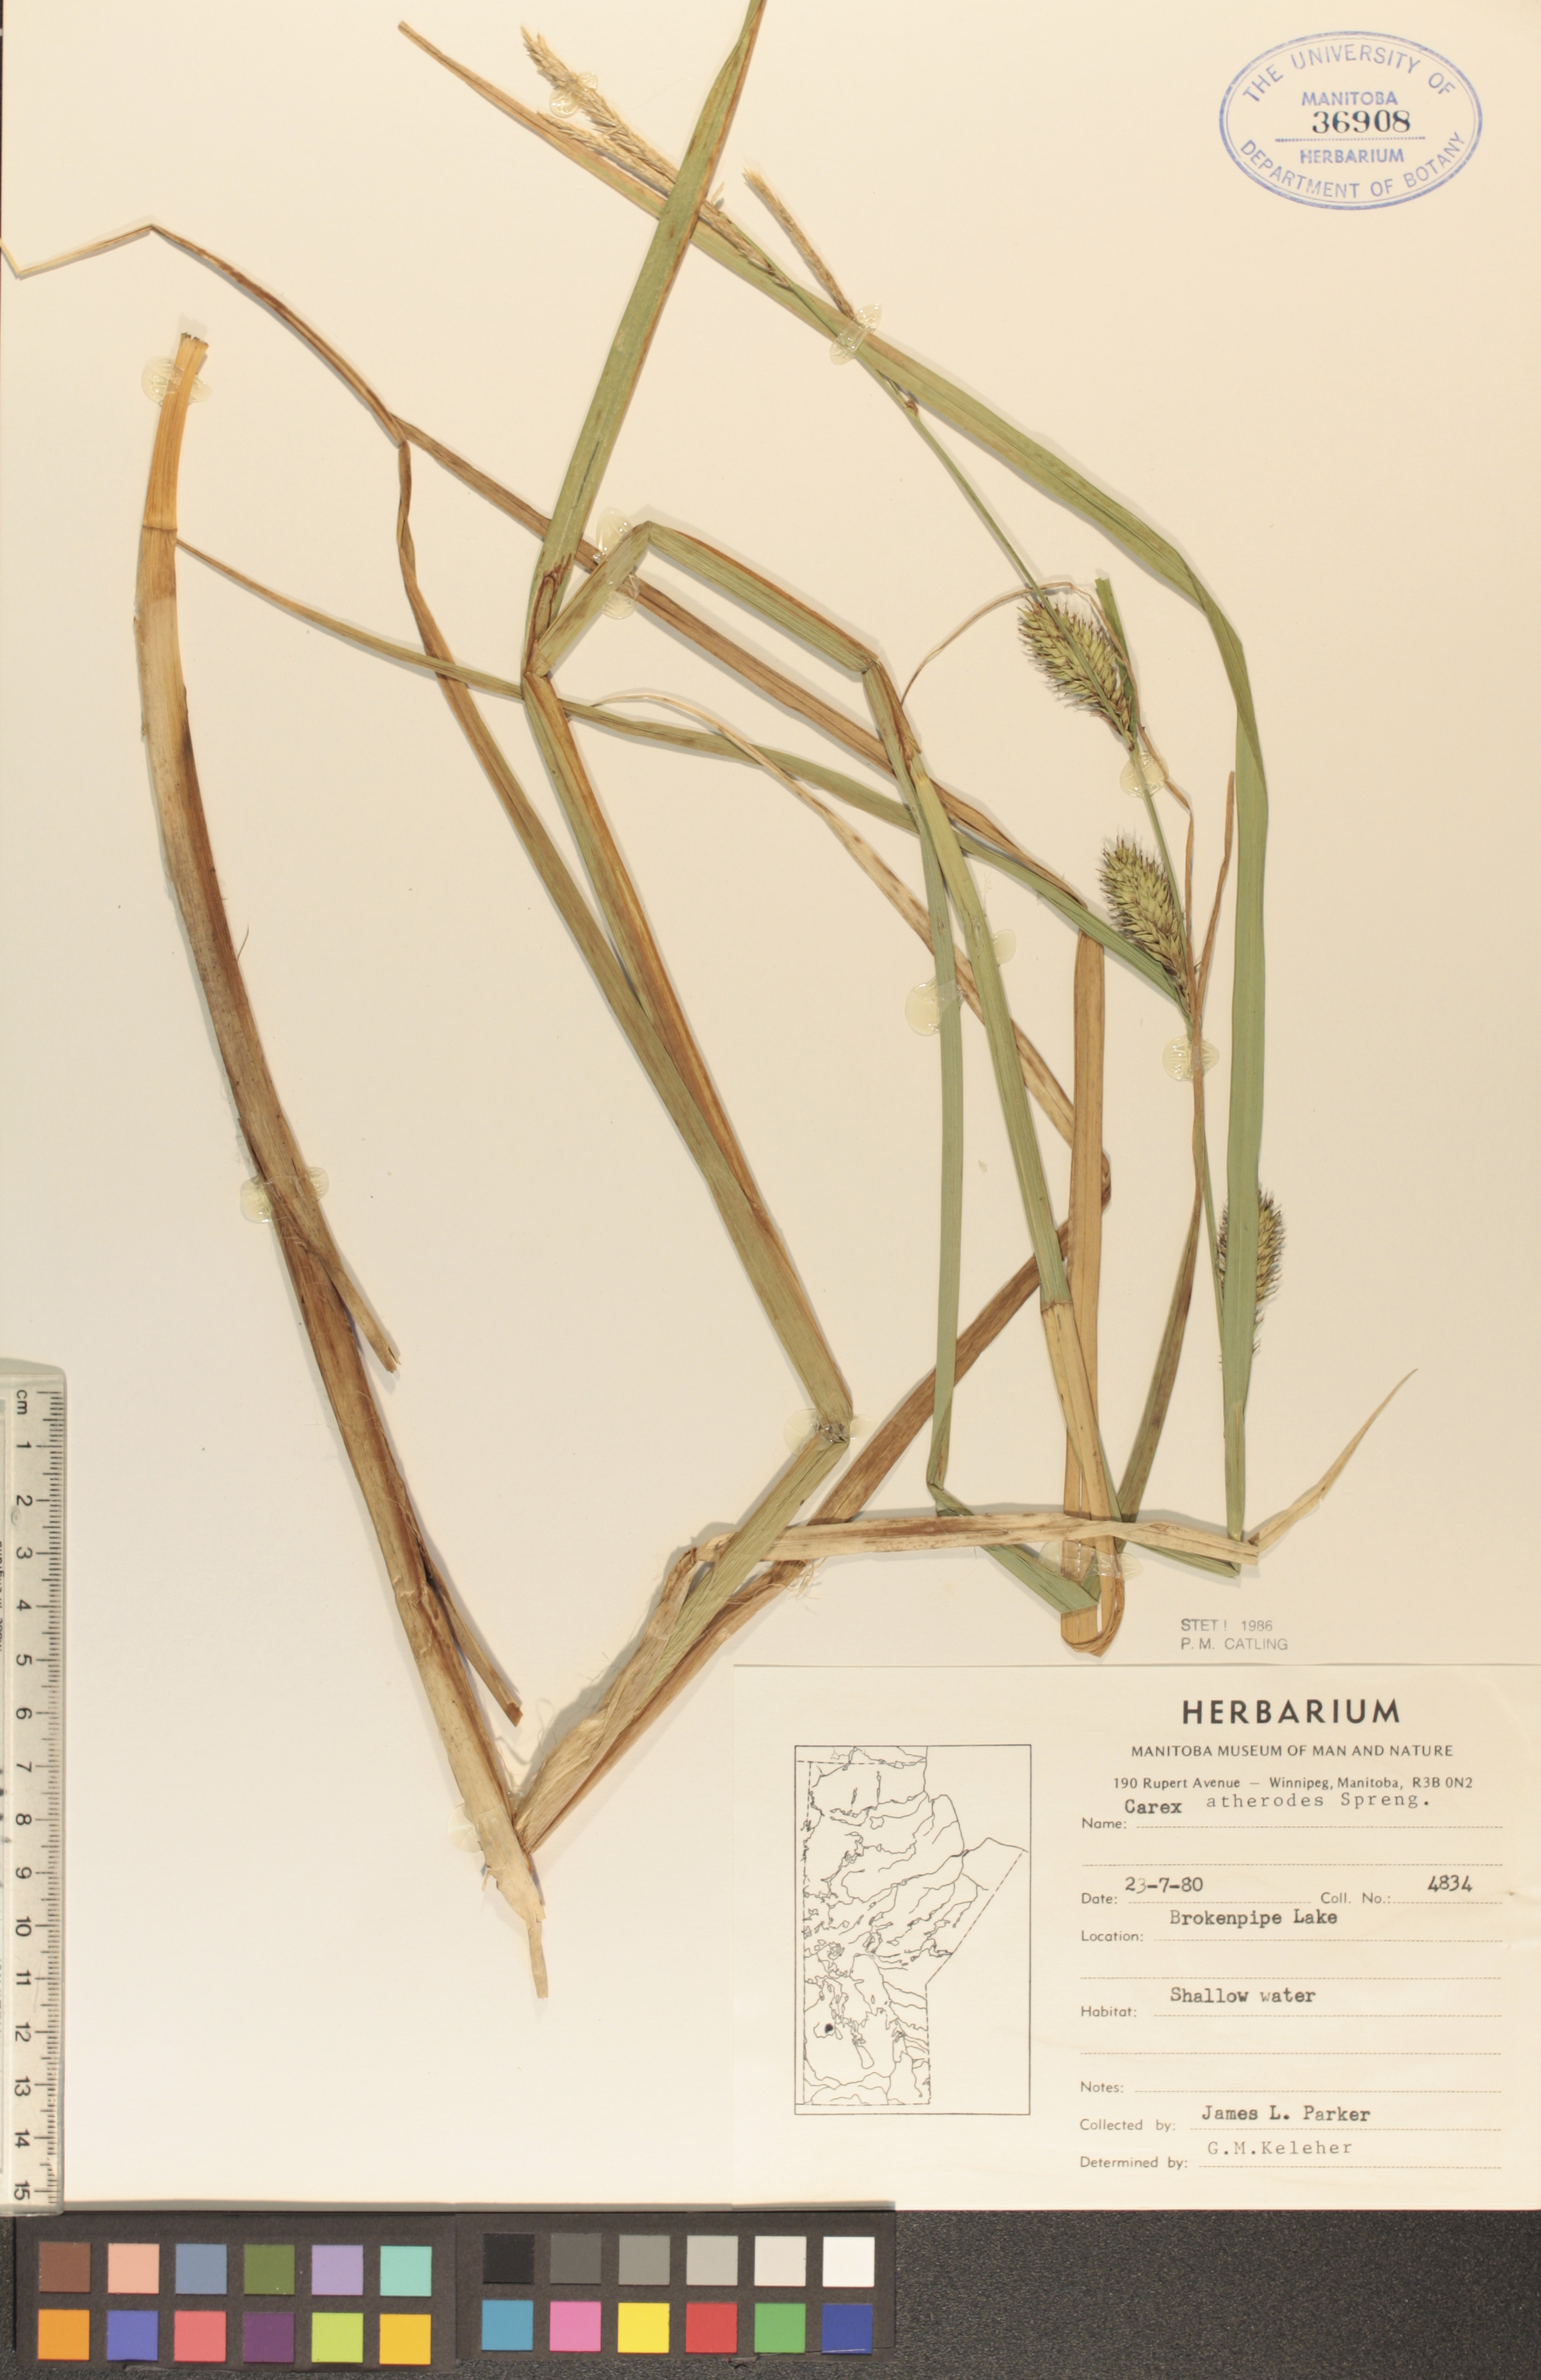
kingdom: Plantae
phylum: Tracheophyta
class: Liliopsida
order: Poales
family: Cyperaceae
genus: Carex
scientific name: Carex atherodes
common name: Wheat sedge
